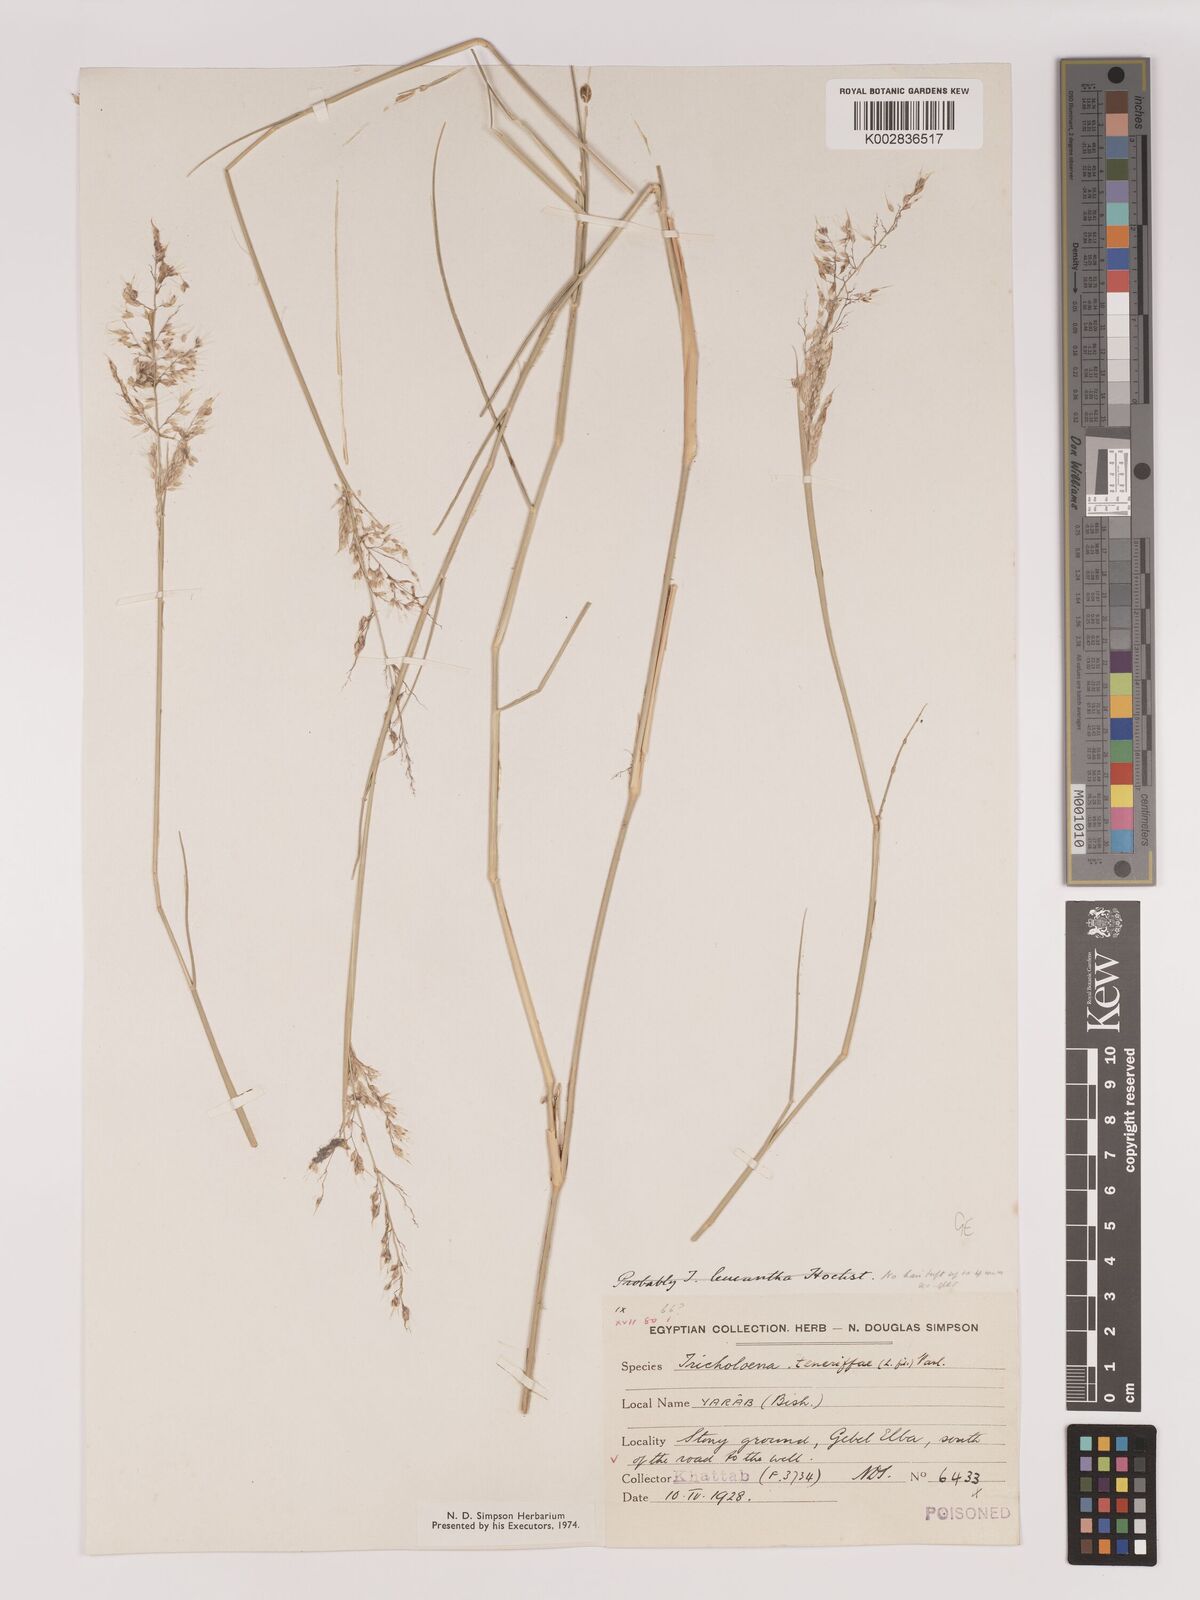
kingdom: Plantae
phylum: Tracheophyta
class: Liliopsida
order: Poales
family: Poaceae
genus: Tricholaena
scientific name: Tricholaena teneriffae
